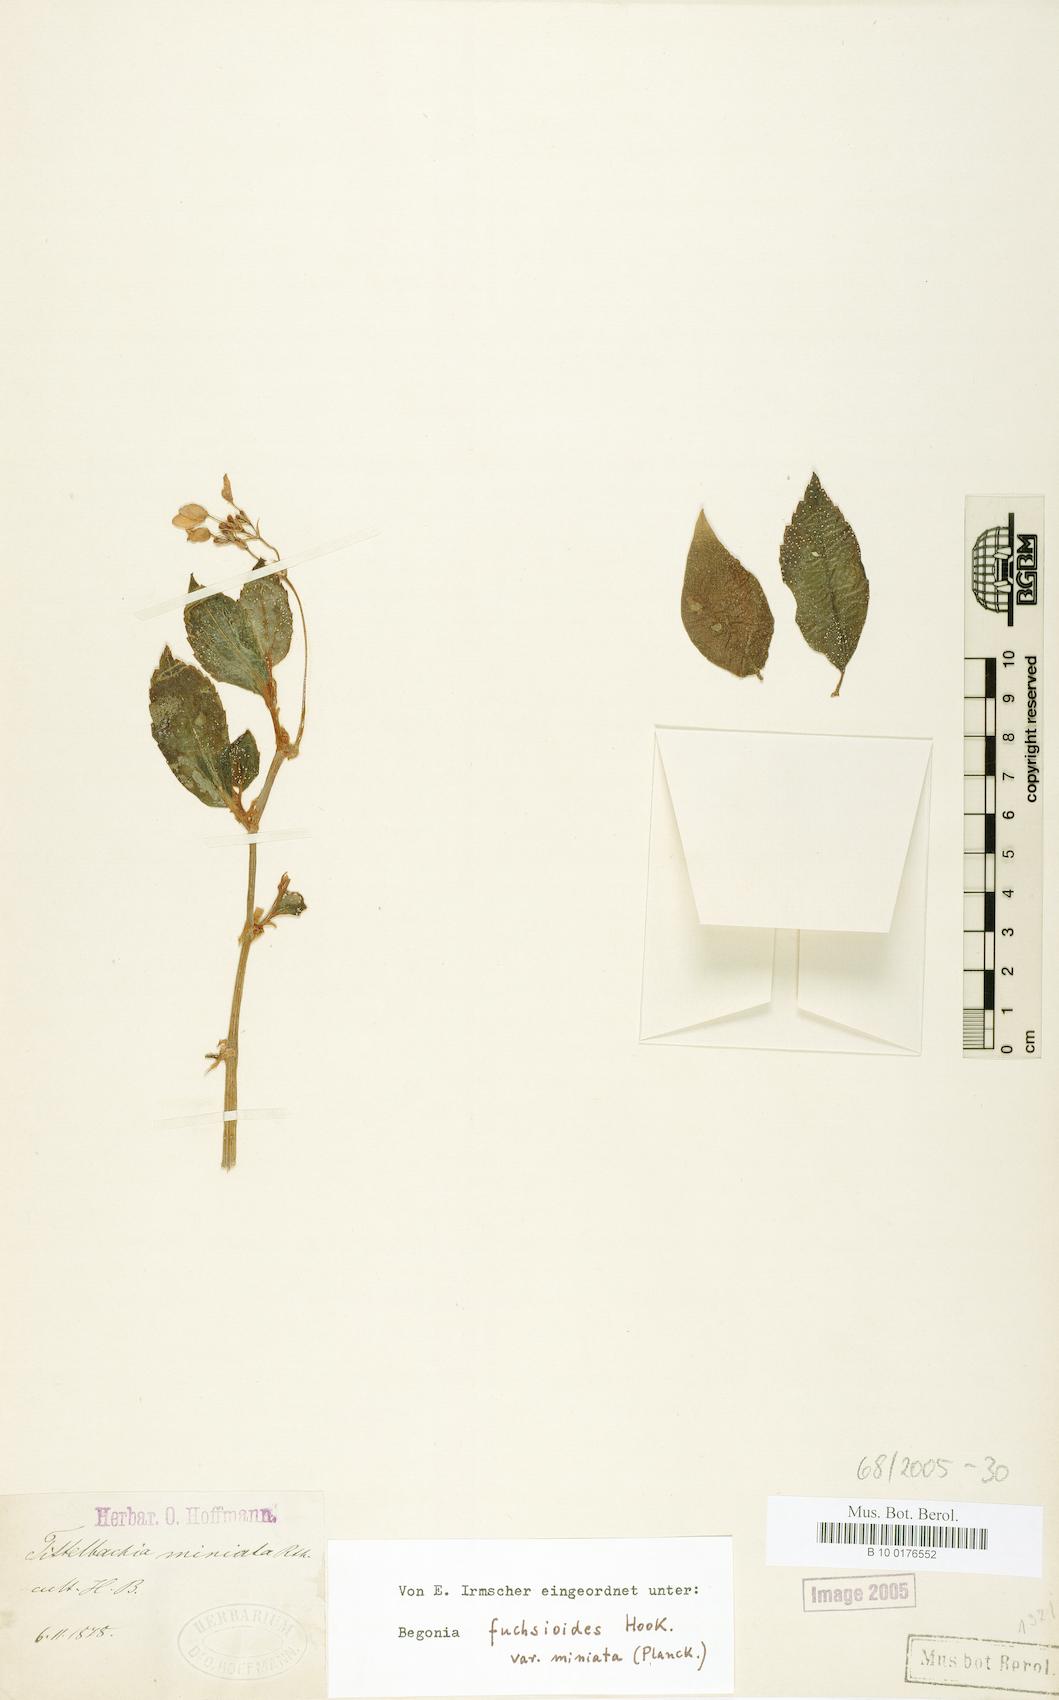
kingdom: Plantae
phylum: Tracheophyta
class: Magnoliopsida
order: Cucurbitales
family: Begoniaceae
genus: Begonia
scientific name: Begonia fuchsioides
